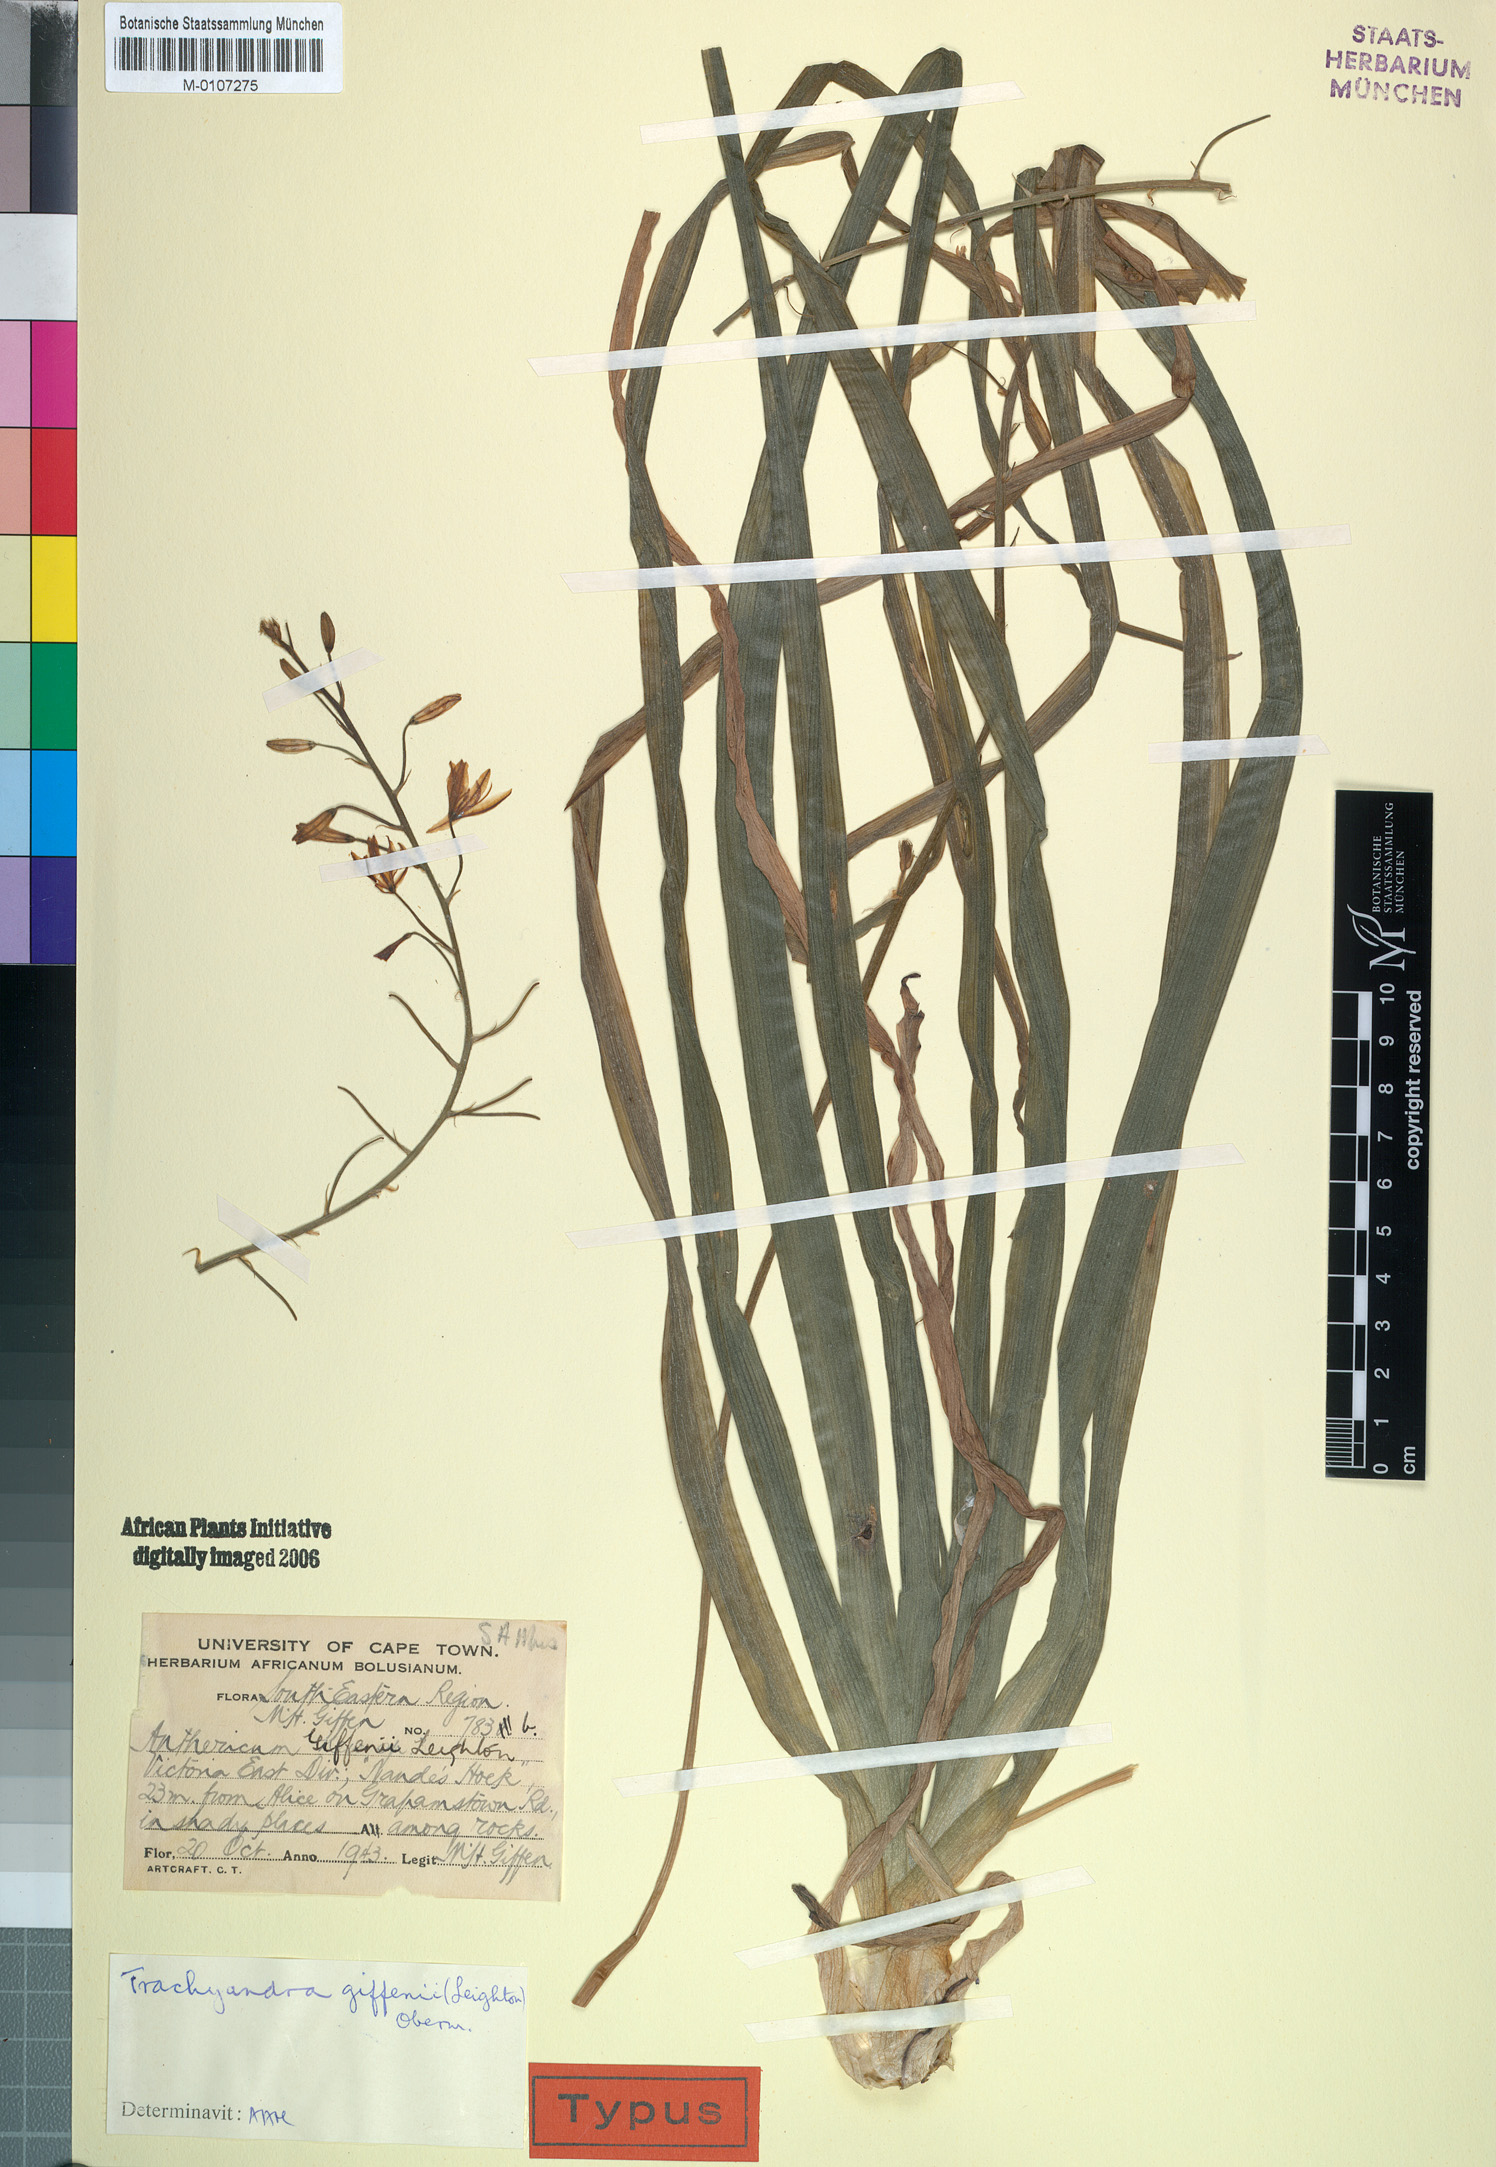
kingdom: Plantae
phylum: Tracheophyta
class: Liliopsida
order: Asparagales
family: Asphodelaceae
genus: Trachyandra
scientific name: Trachyandra giffenii
